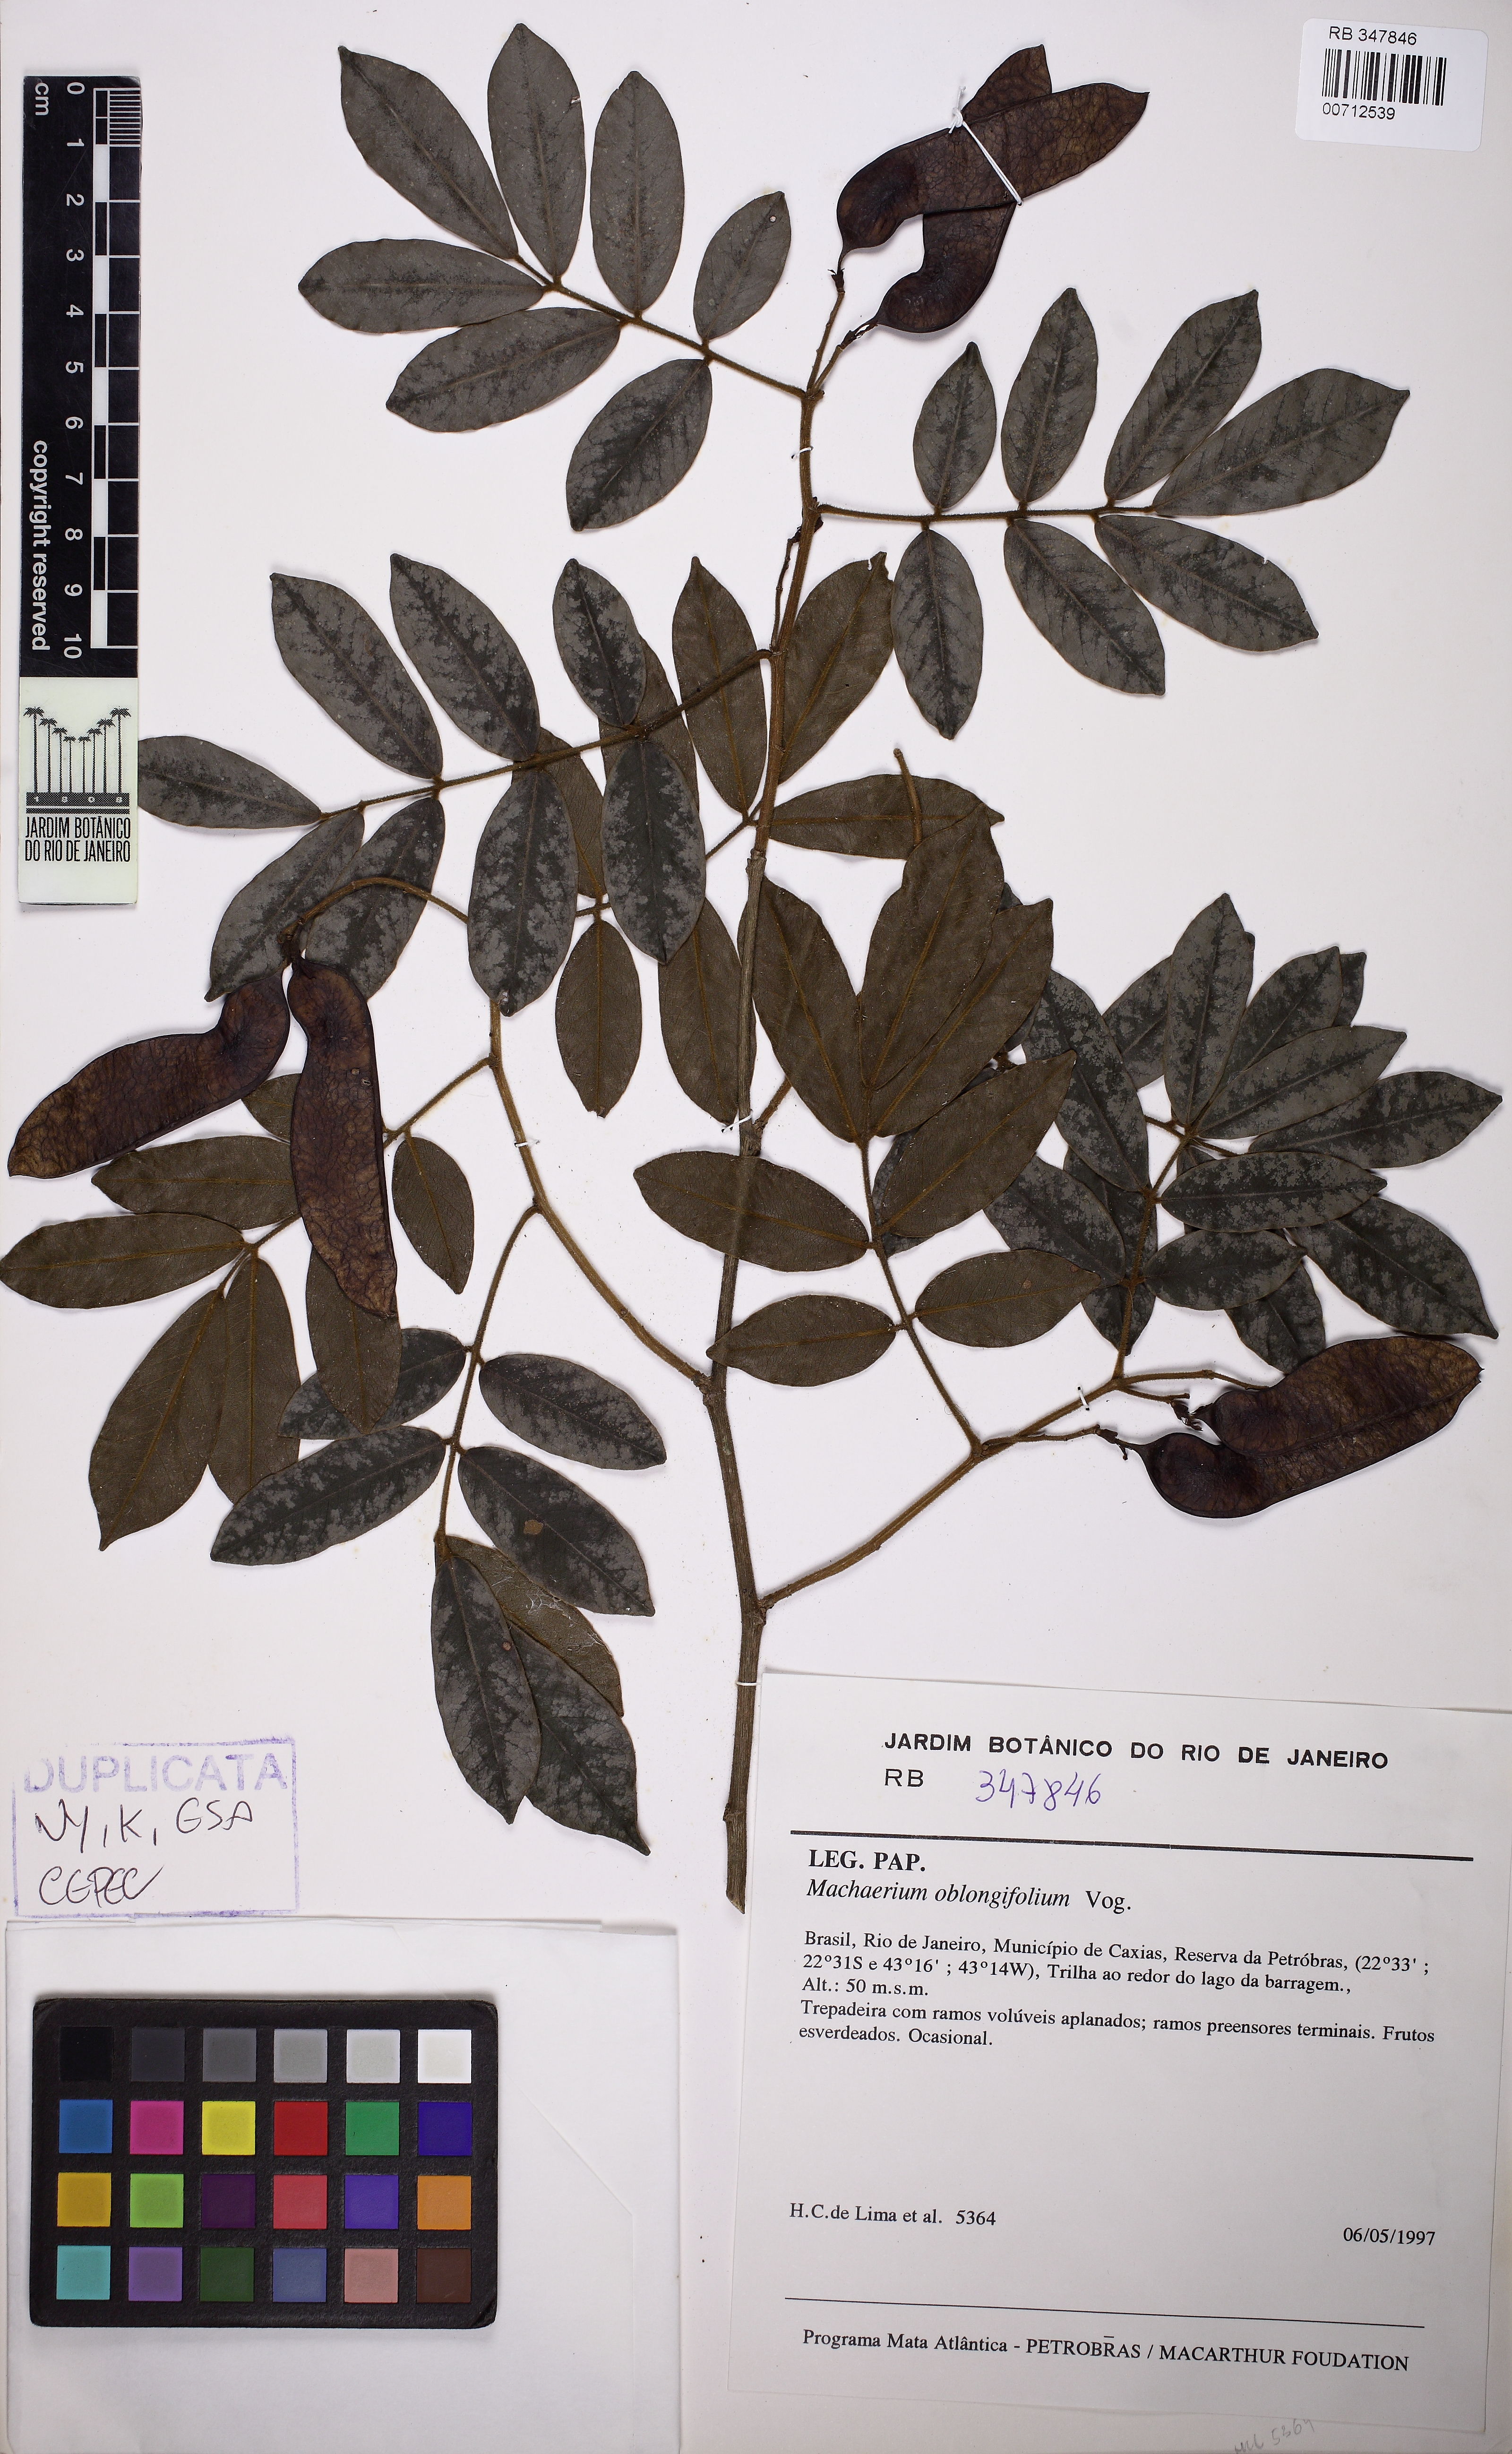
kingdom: Plantae
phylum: Tracheophyta
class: Magnoliopsida
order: Fabales
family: Fabaceae
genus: Machaerium
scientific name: Machaerium oblongifolium
